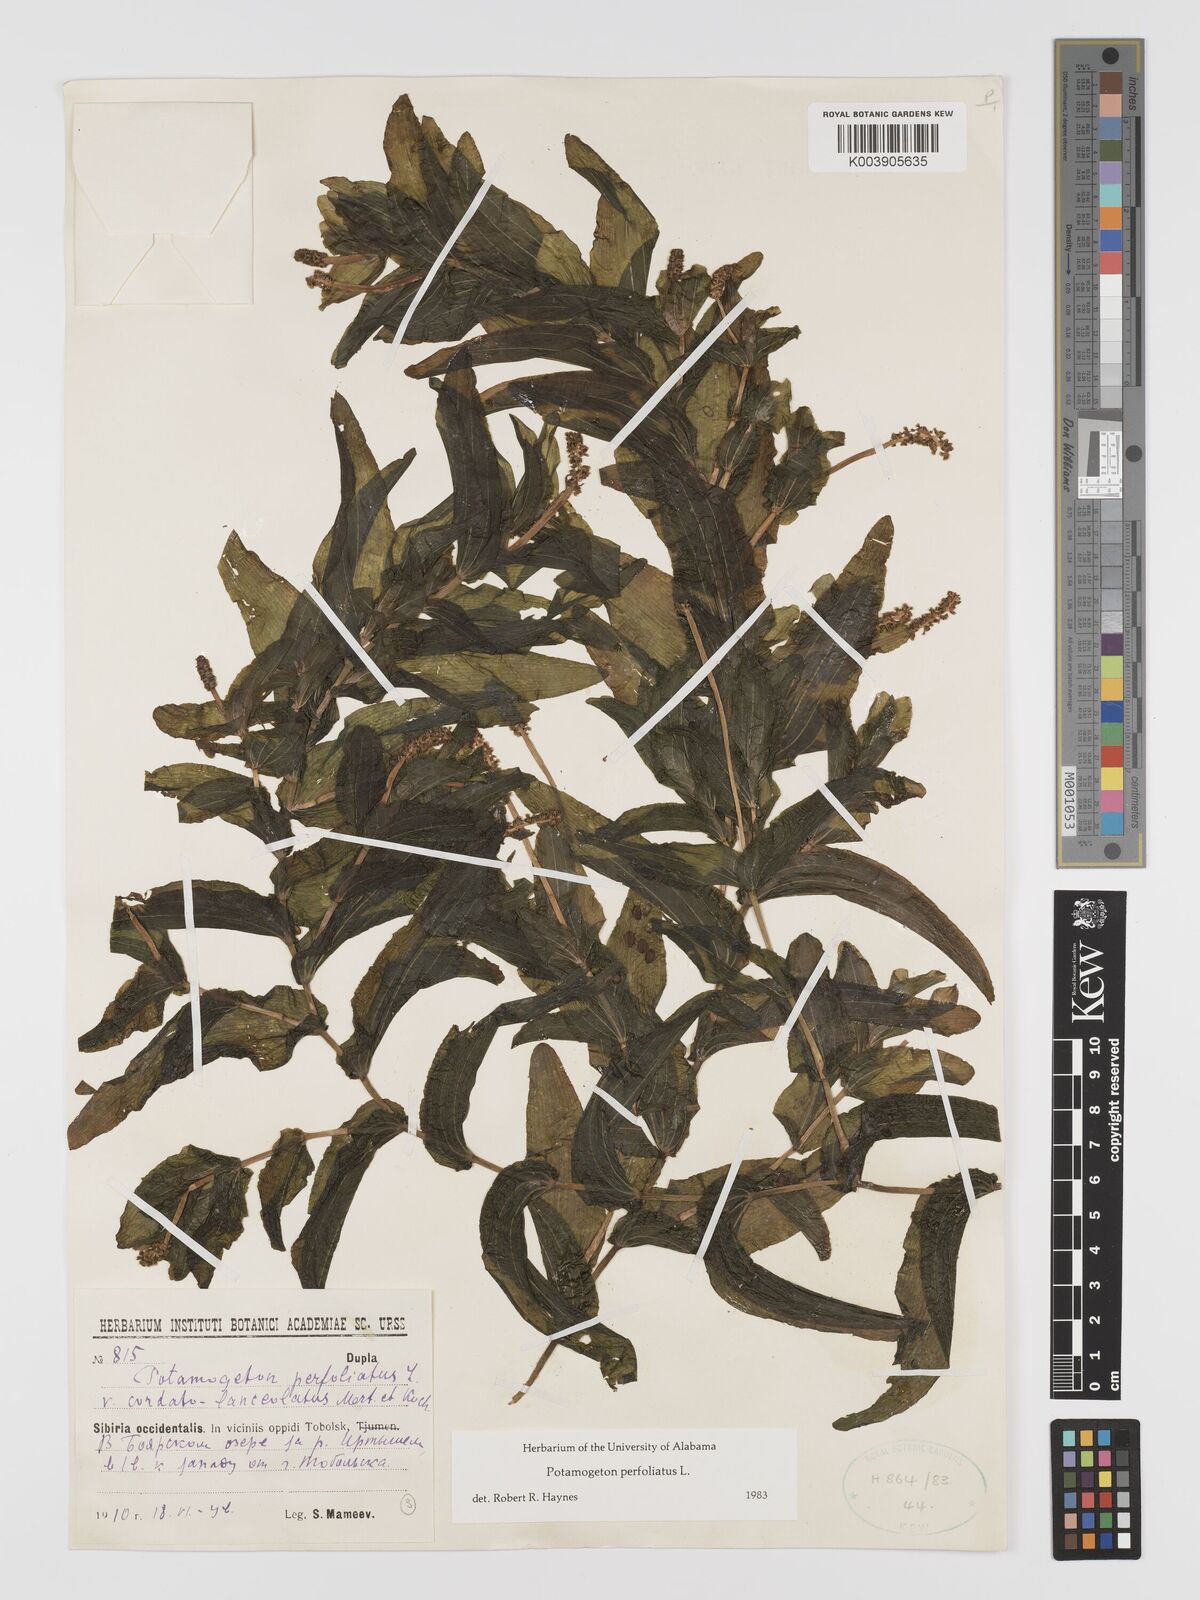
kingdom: Plantae
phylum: Tracheophyta
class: Liliopsida
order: Alismatales
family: Potamogetonaceae
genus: Potamogeton
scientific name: Potamogeton perfoliatus
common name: Perfoliate pondweed
